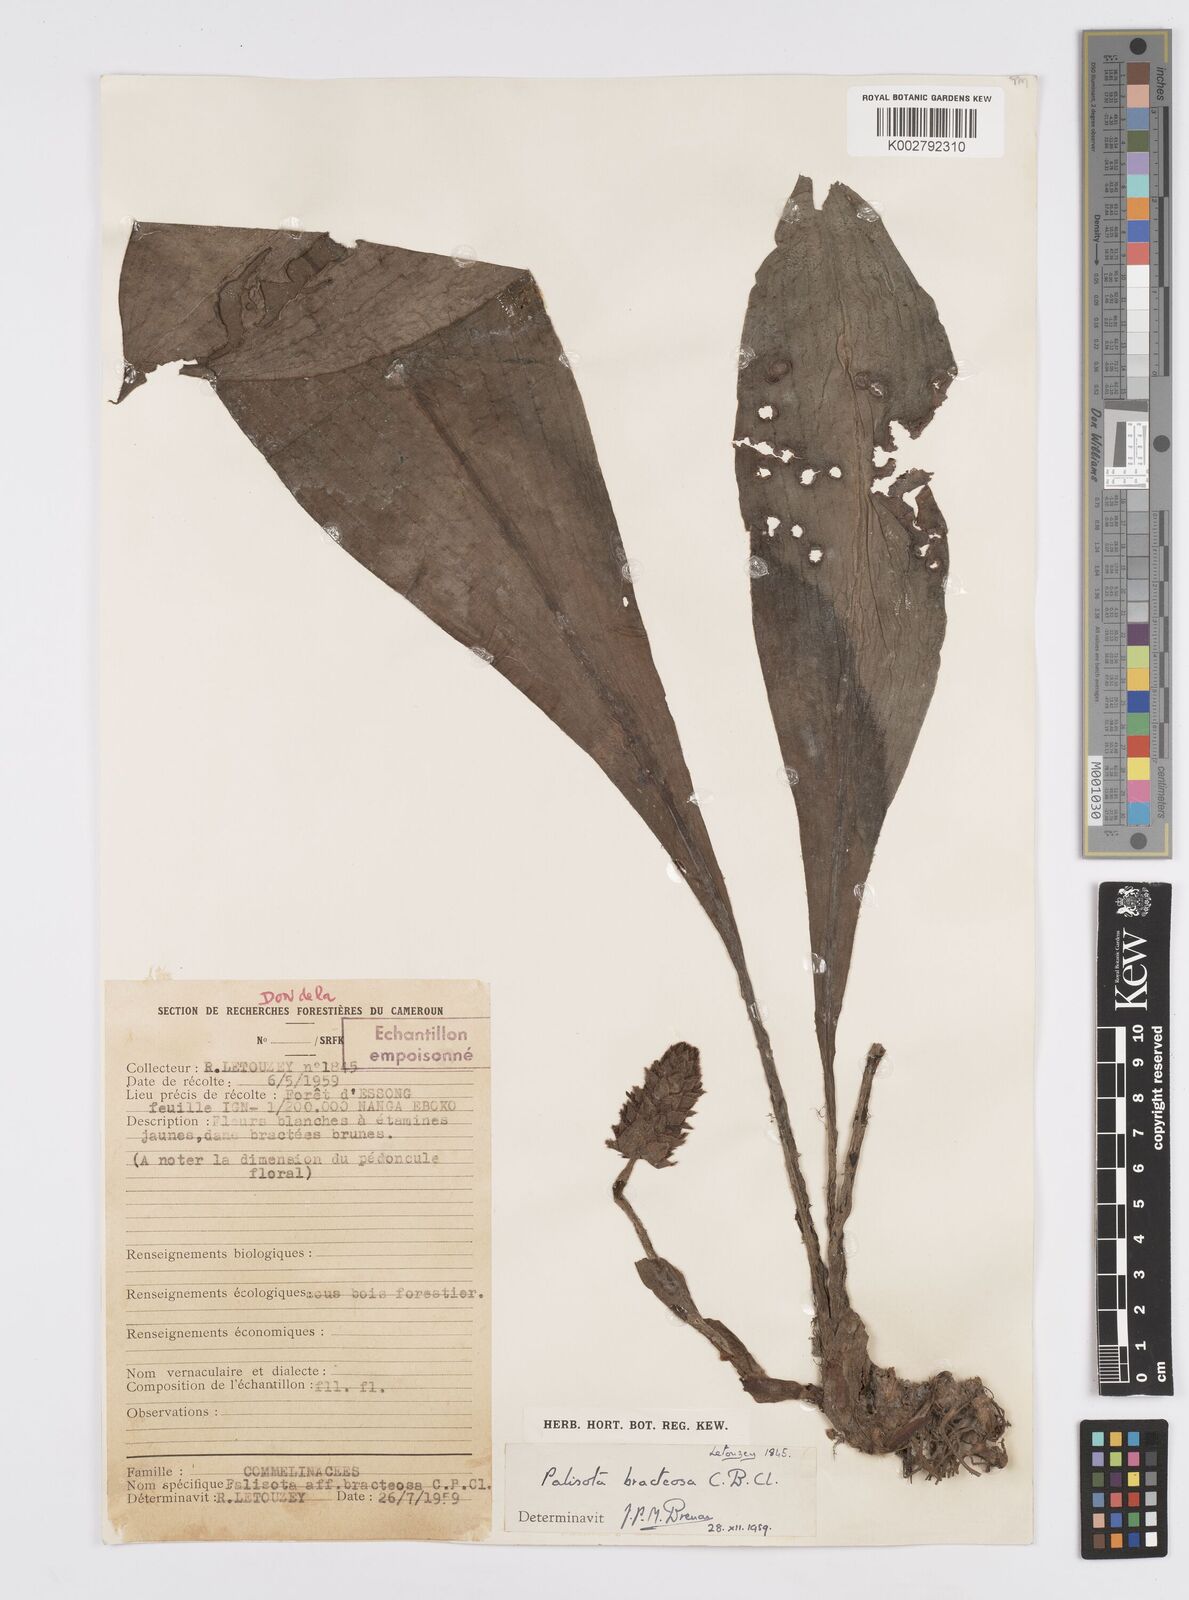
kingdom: Plantae
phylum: Tracheophyta
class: Liliopsida
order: Commelinales
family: Commelinaceae
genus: Palisota
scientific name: Palisota bracteosa
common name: Palisota
